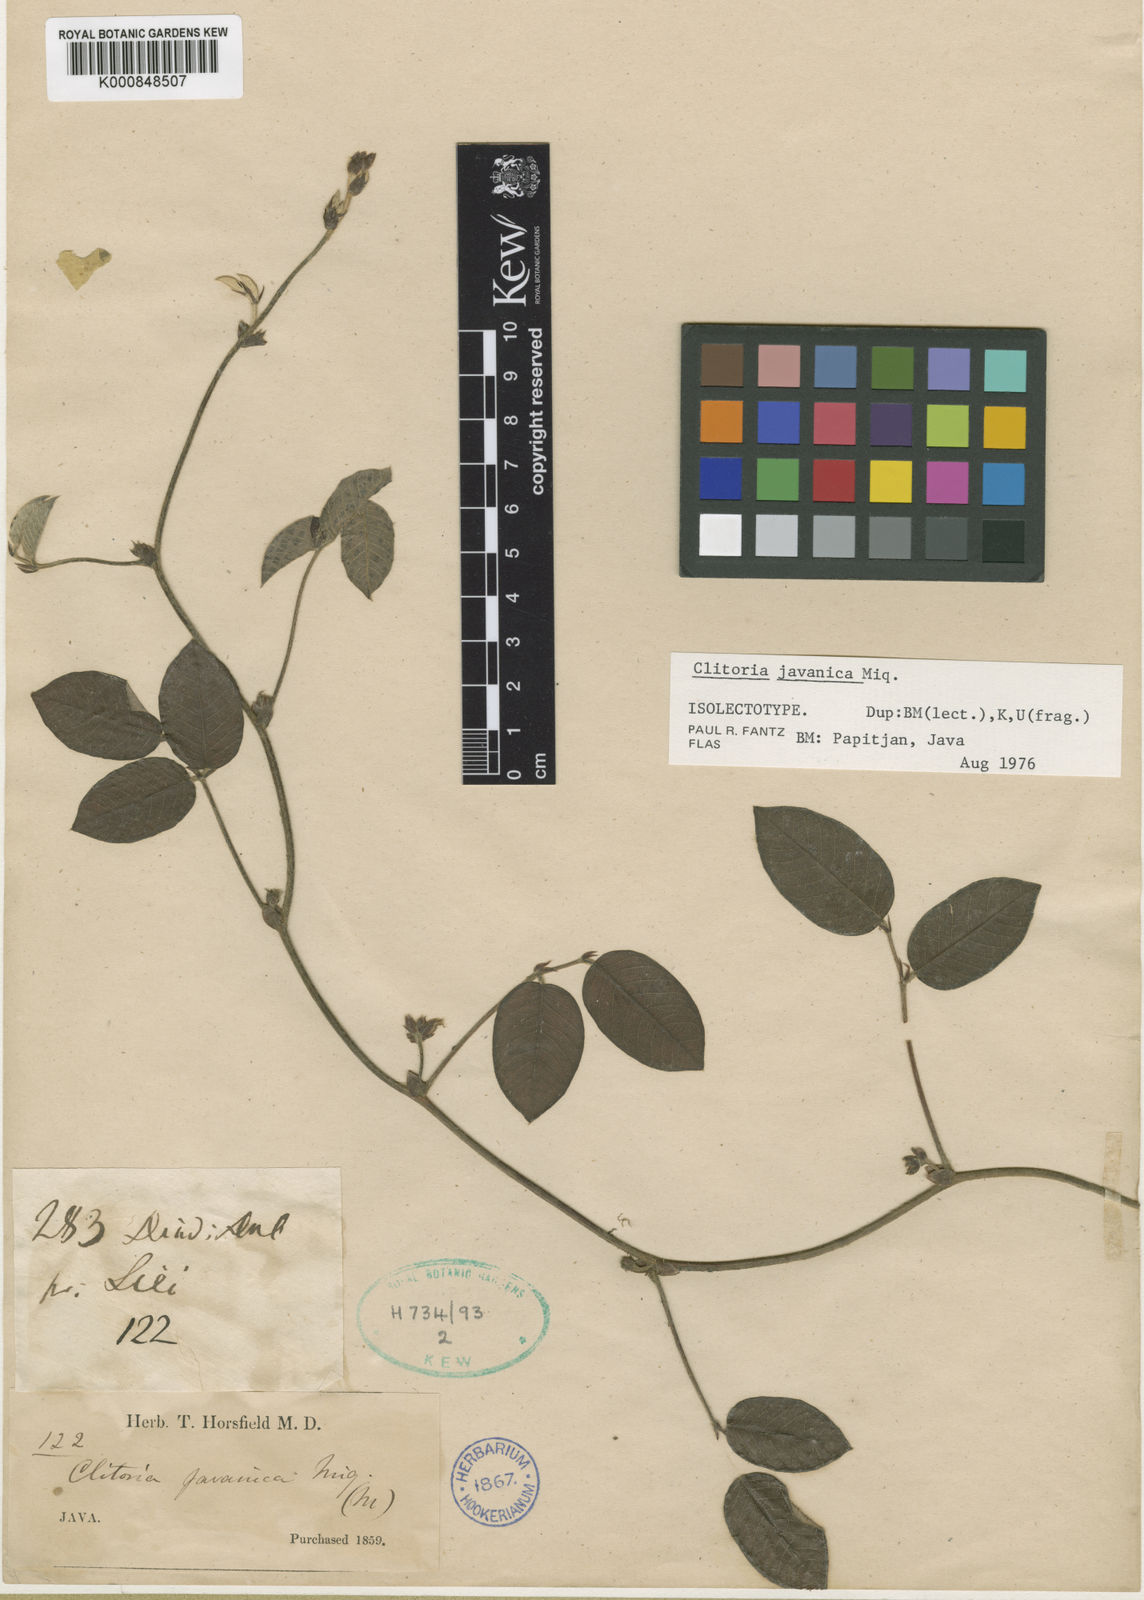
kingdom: Plantae
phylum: Tracheophyta
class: Magnoliopsida
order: Fabales
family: Fabaceae
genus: Clitoria
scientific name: Clitoria javanica
